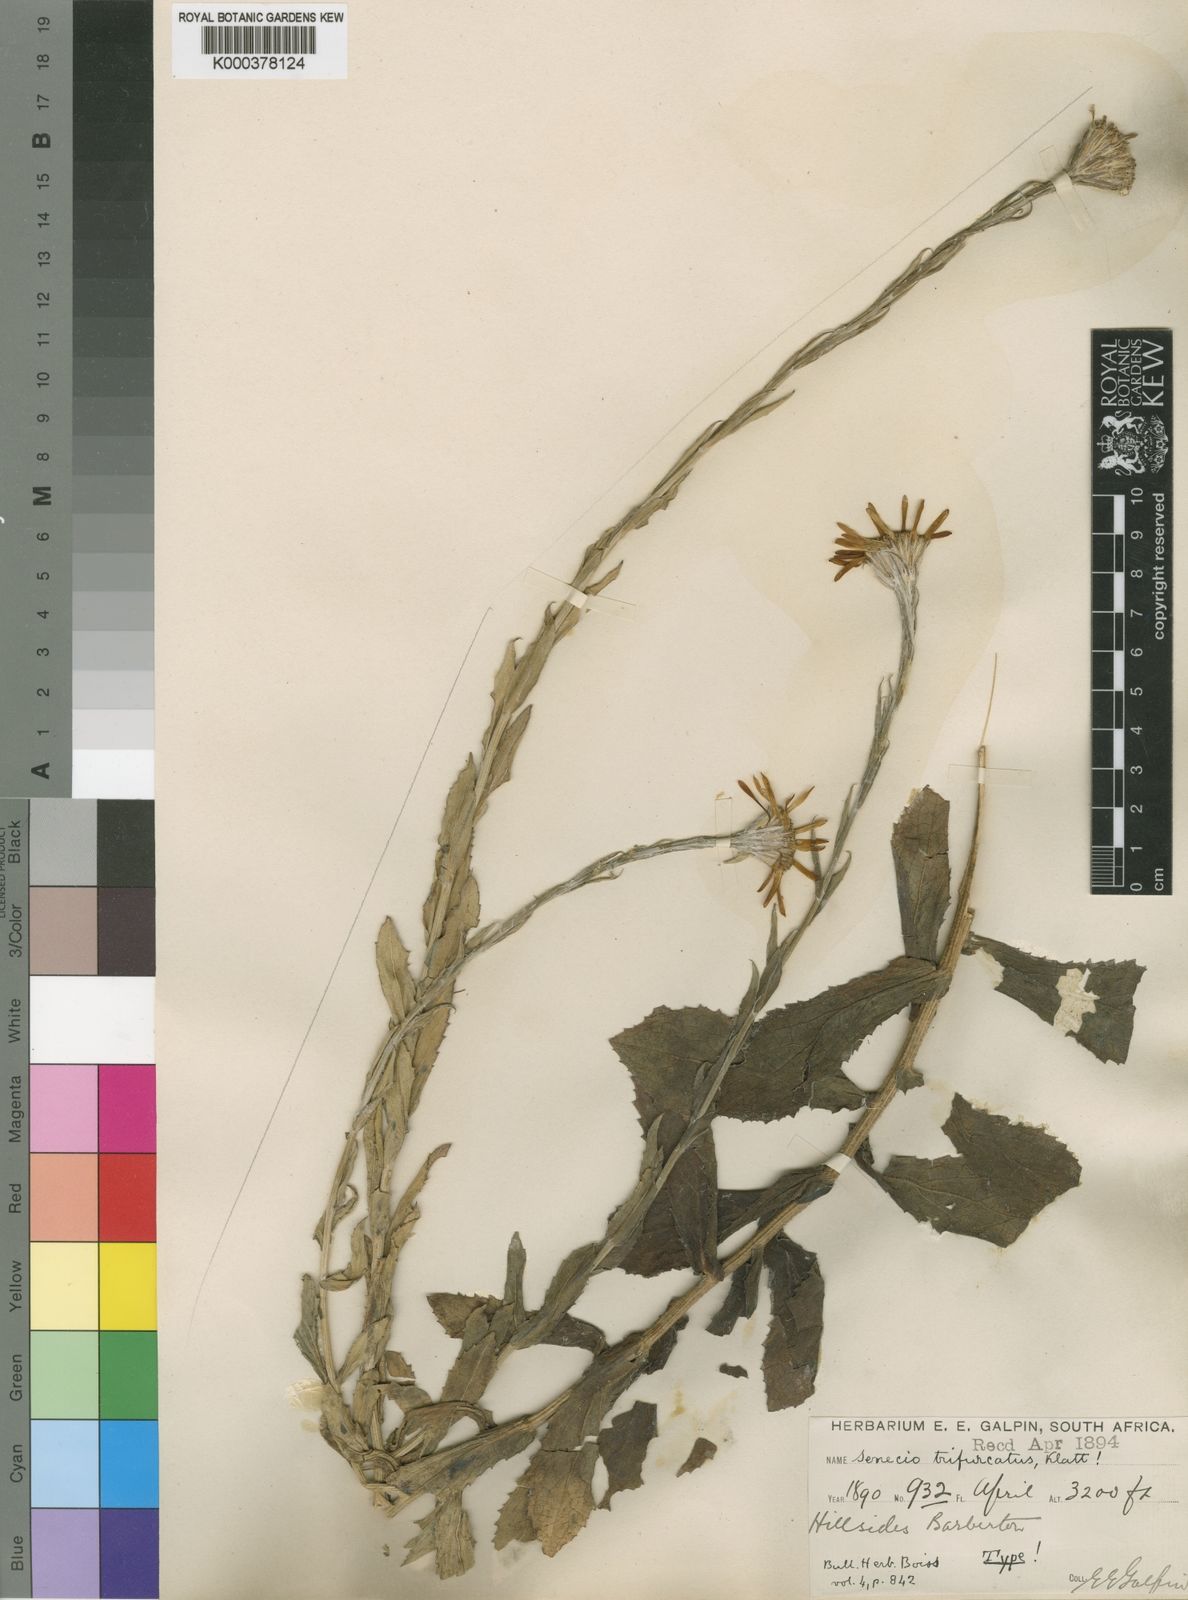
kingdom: Plantae
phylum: Tracheophyta
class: Magnoliopsida
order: Asterales
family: Asteraceae
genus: Senecio
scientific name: Senecio triodontiphyllus
